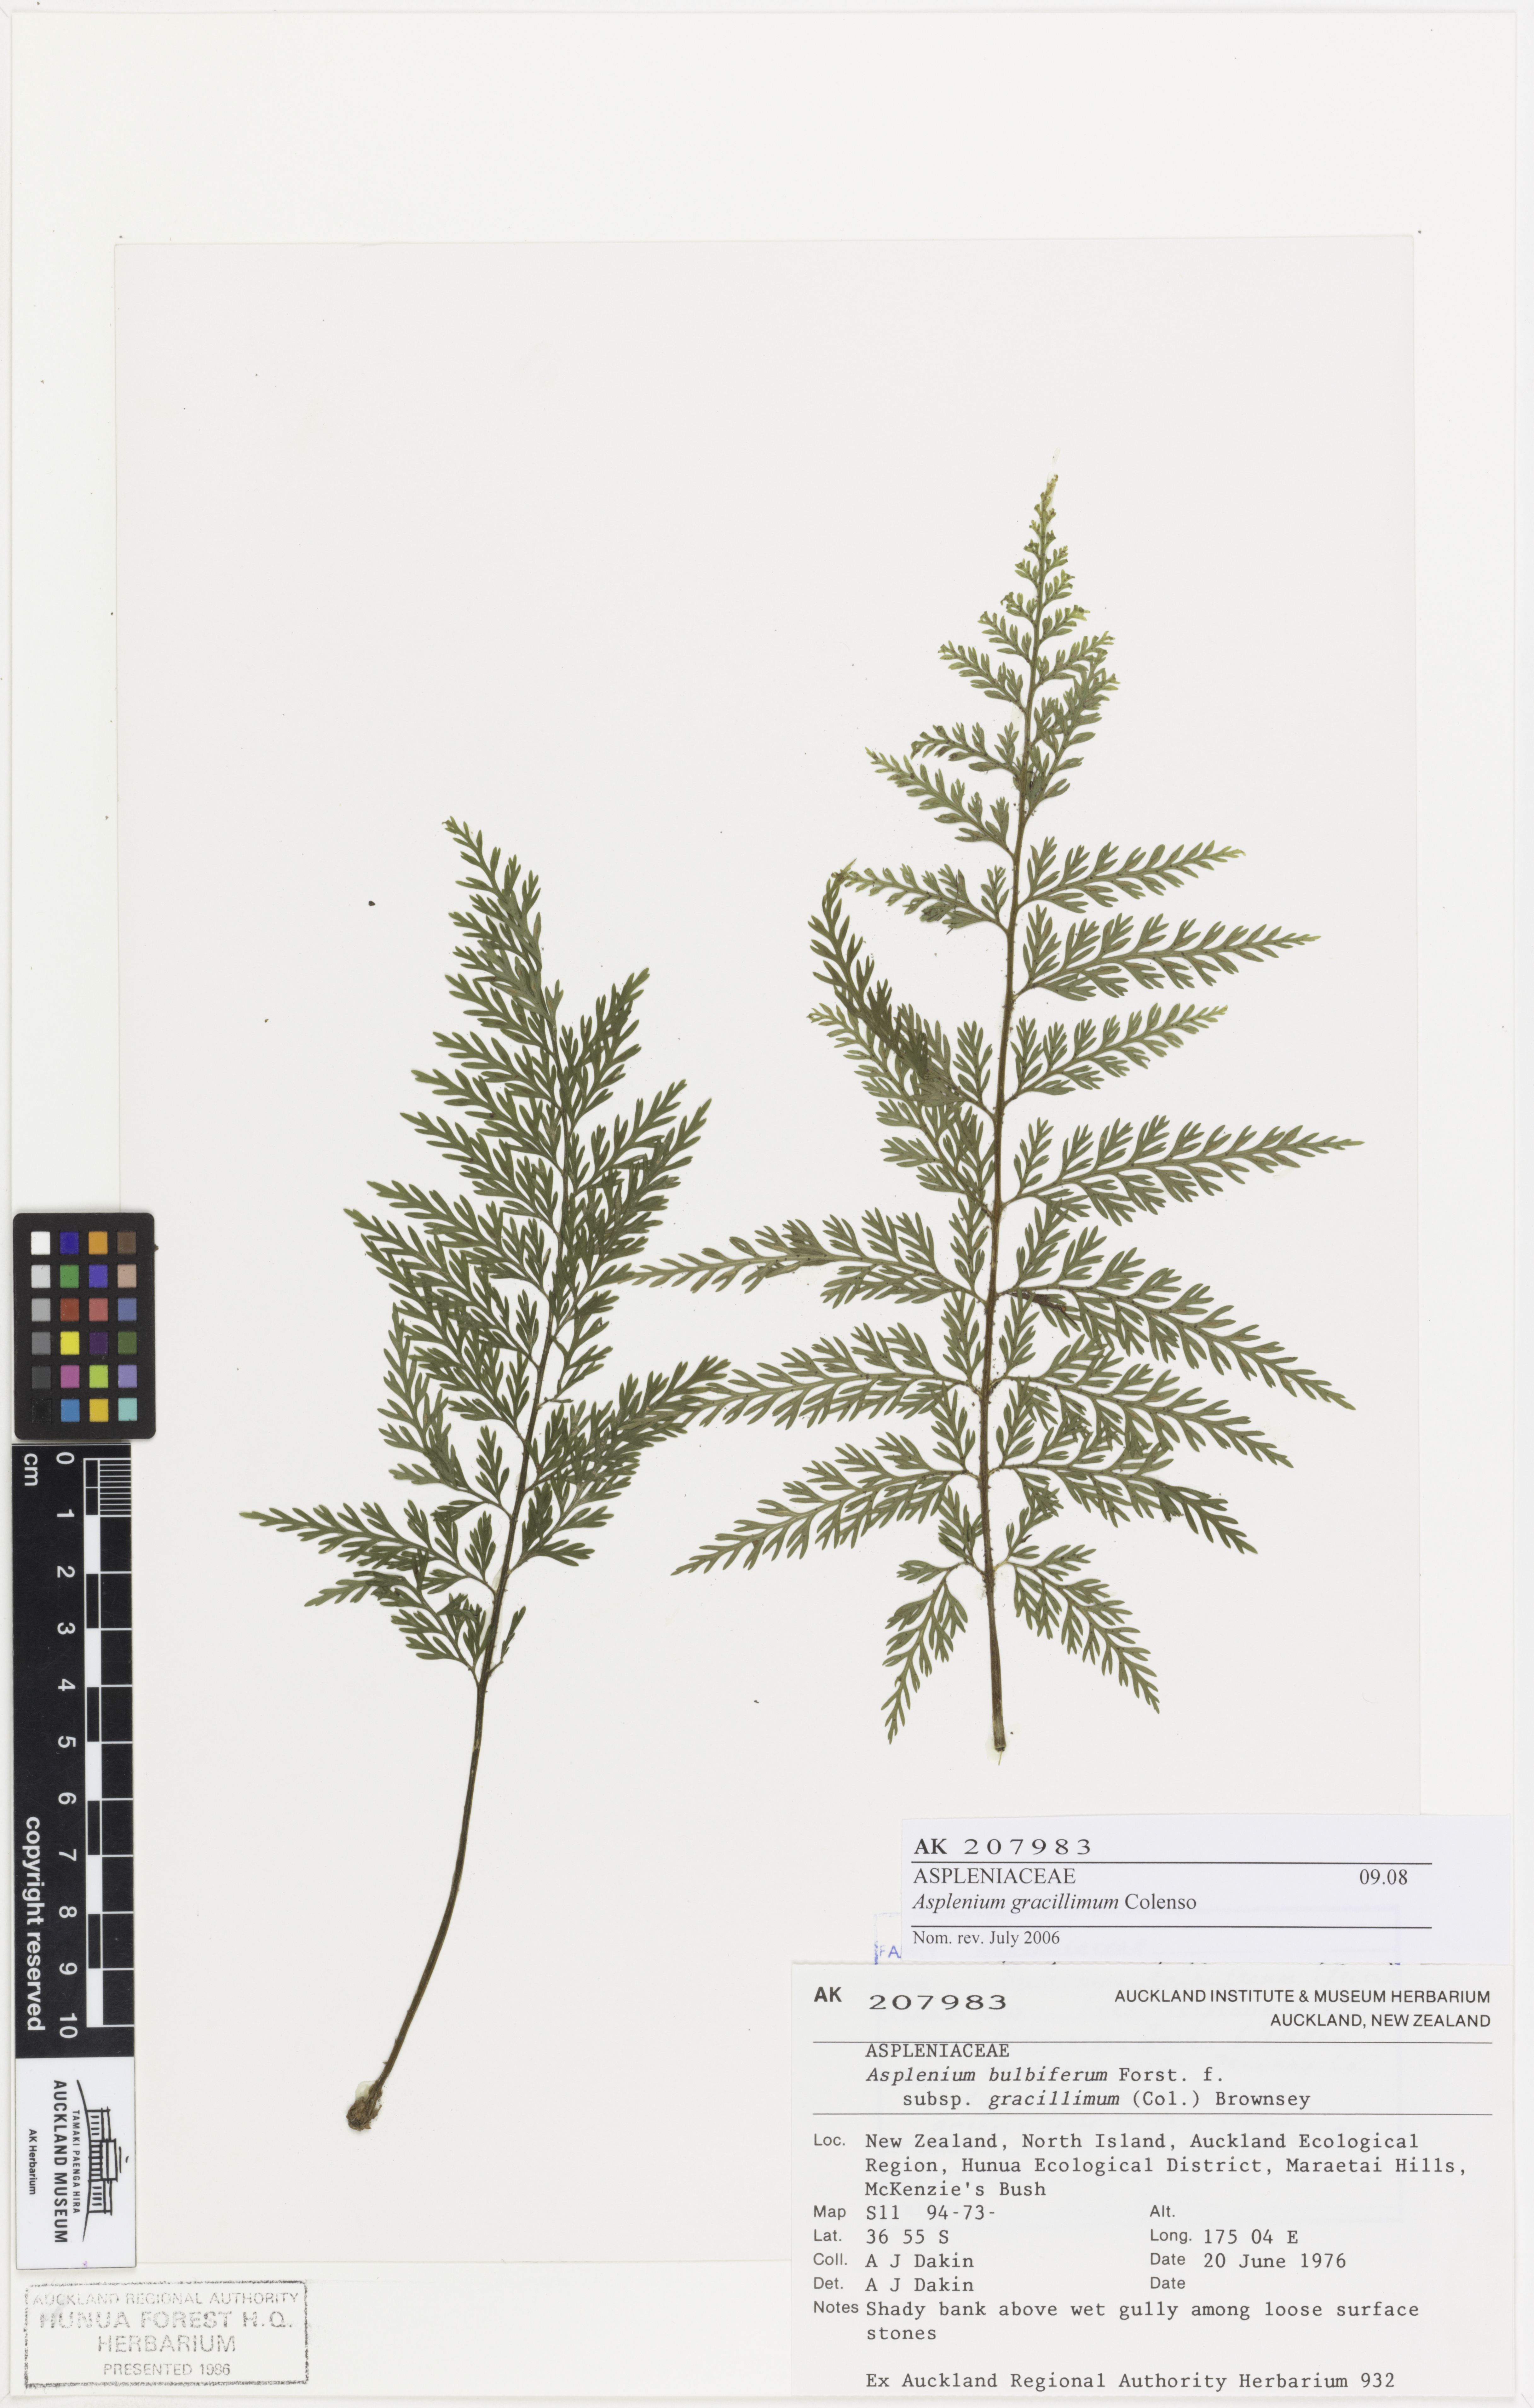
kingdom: Plantae
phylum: Tracheophyta
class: Polypodiopsida
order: Polypodiales
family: Aspleniaceae
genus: Asplenium
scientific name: Asplenium bulbiferum
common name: Mother fern
